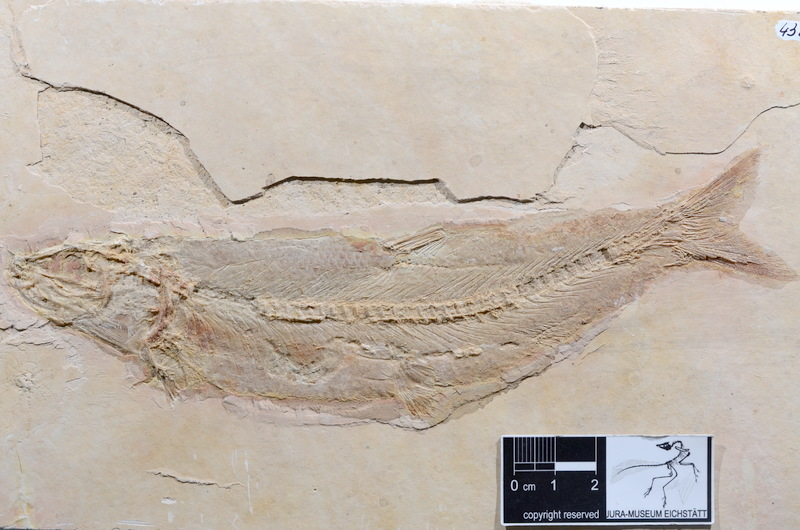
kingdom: Animalia
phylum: Chordata
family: Ascalaboidae
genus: Tharsis
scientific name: Tharsis dubius
